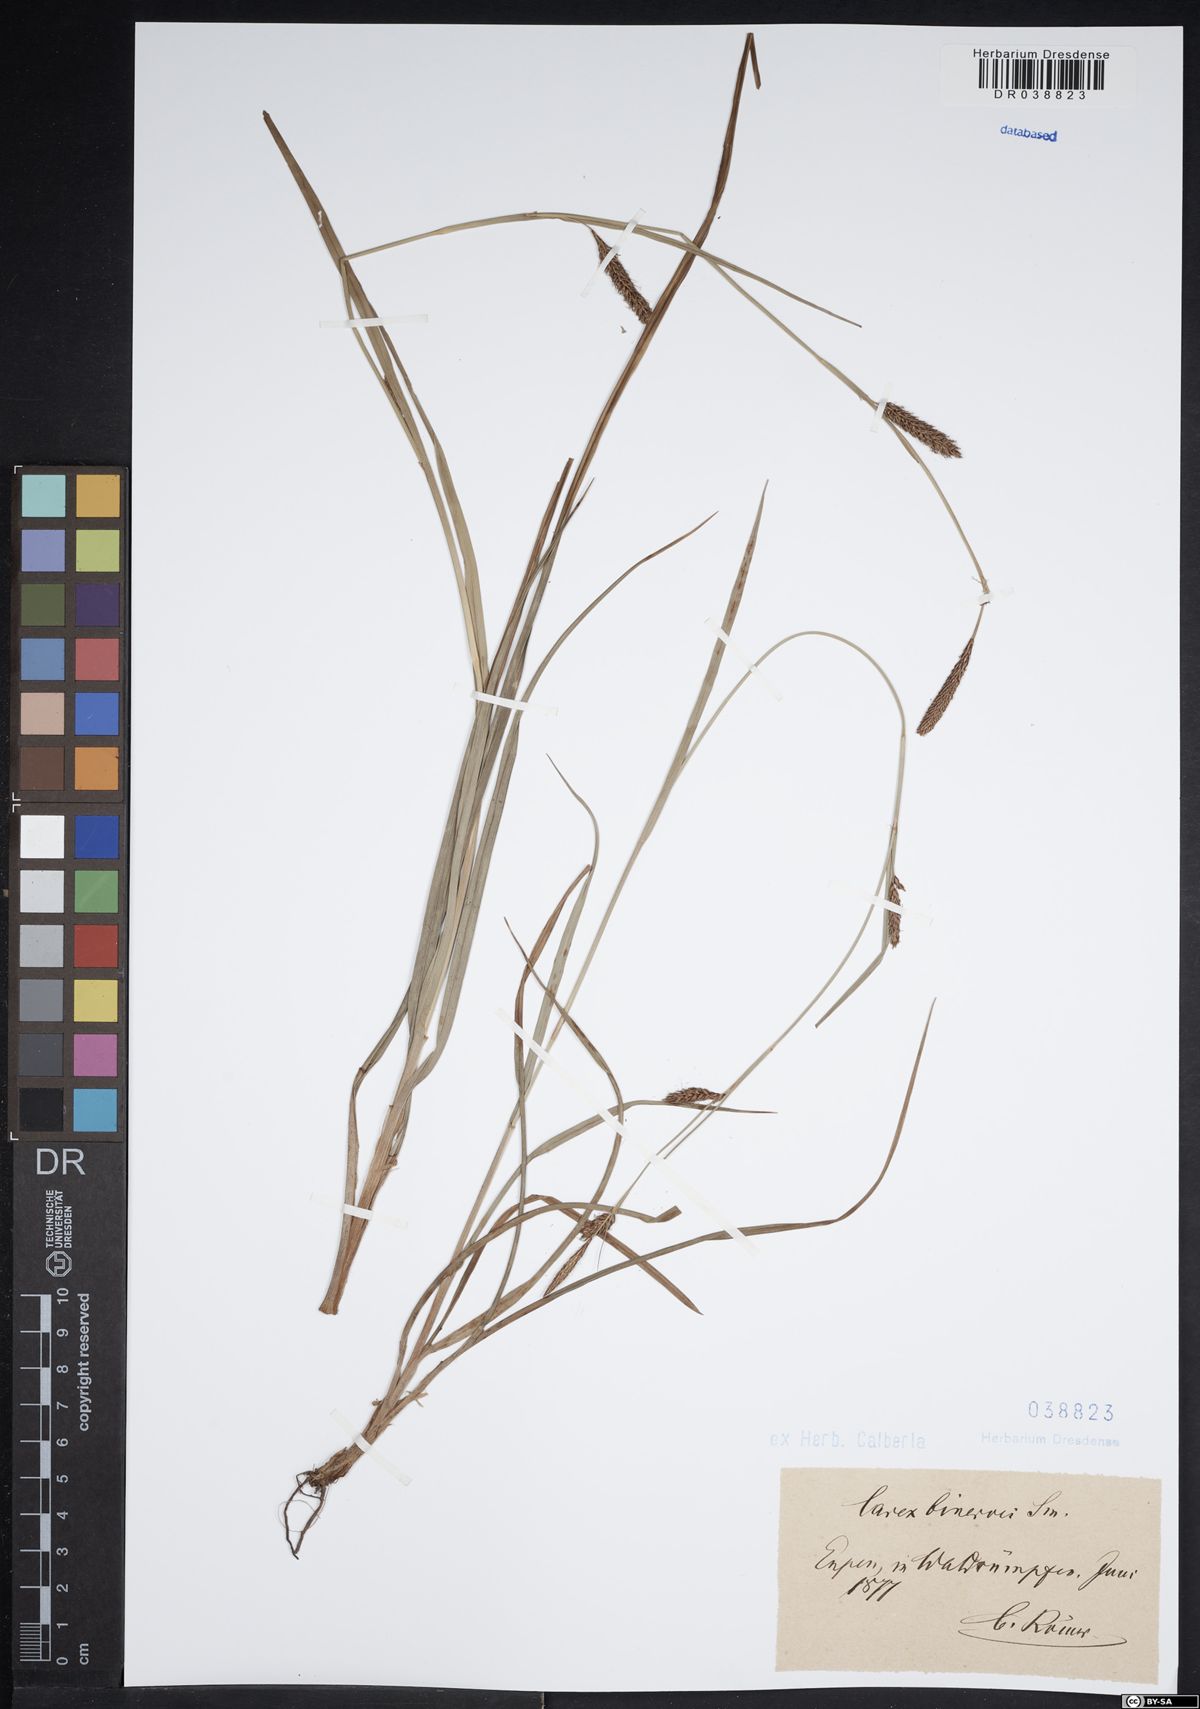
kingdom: Plantae
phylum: Tracheophyta
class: Liliopsida
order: Poales
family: Cyperaceae
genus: Carex
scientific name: Carex binervis
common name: Green-ribbed sedge
